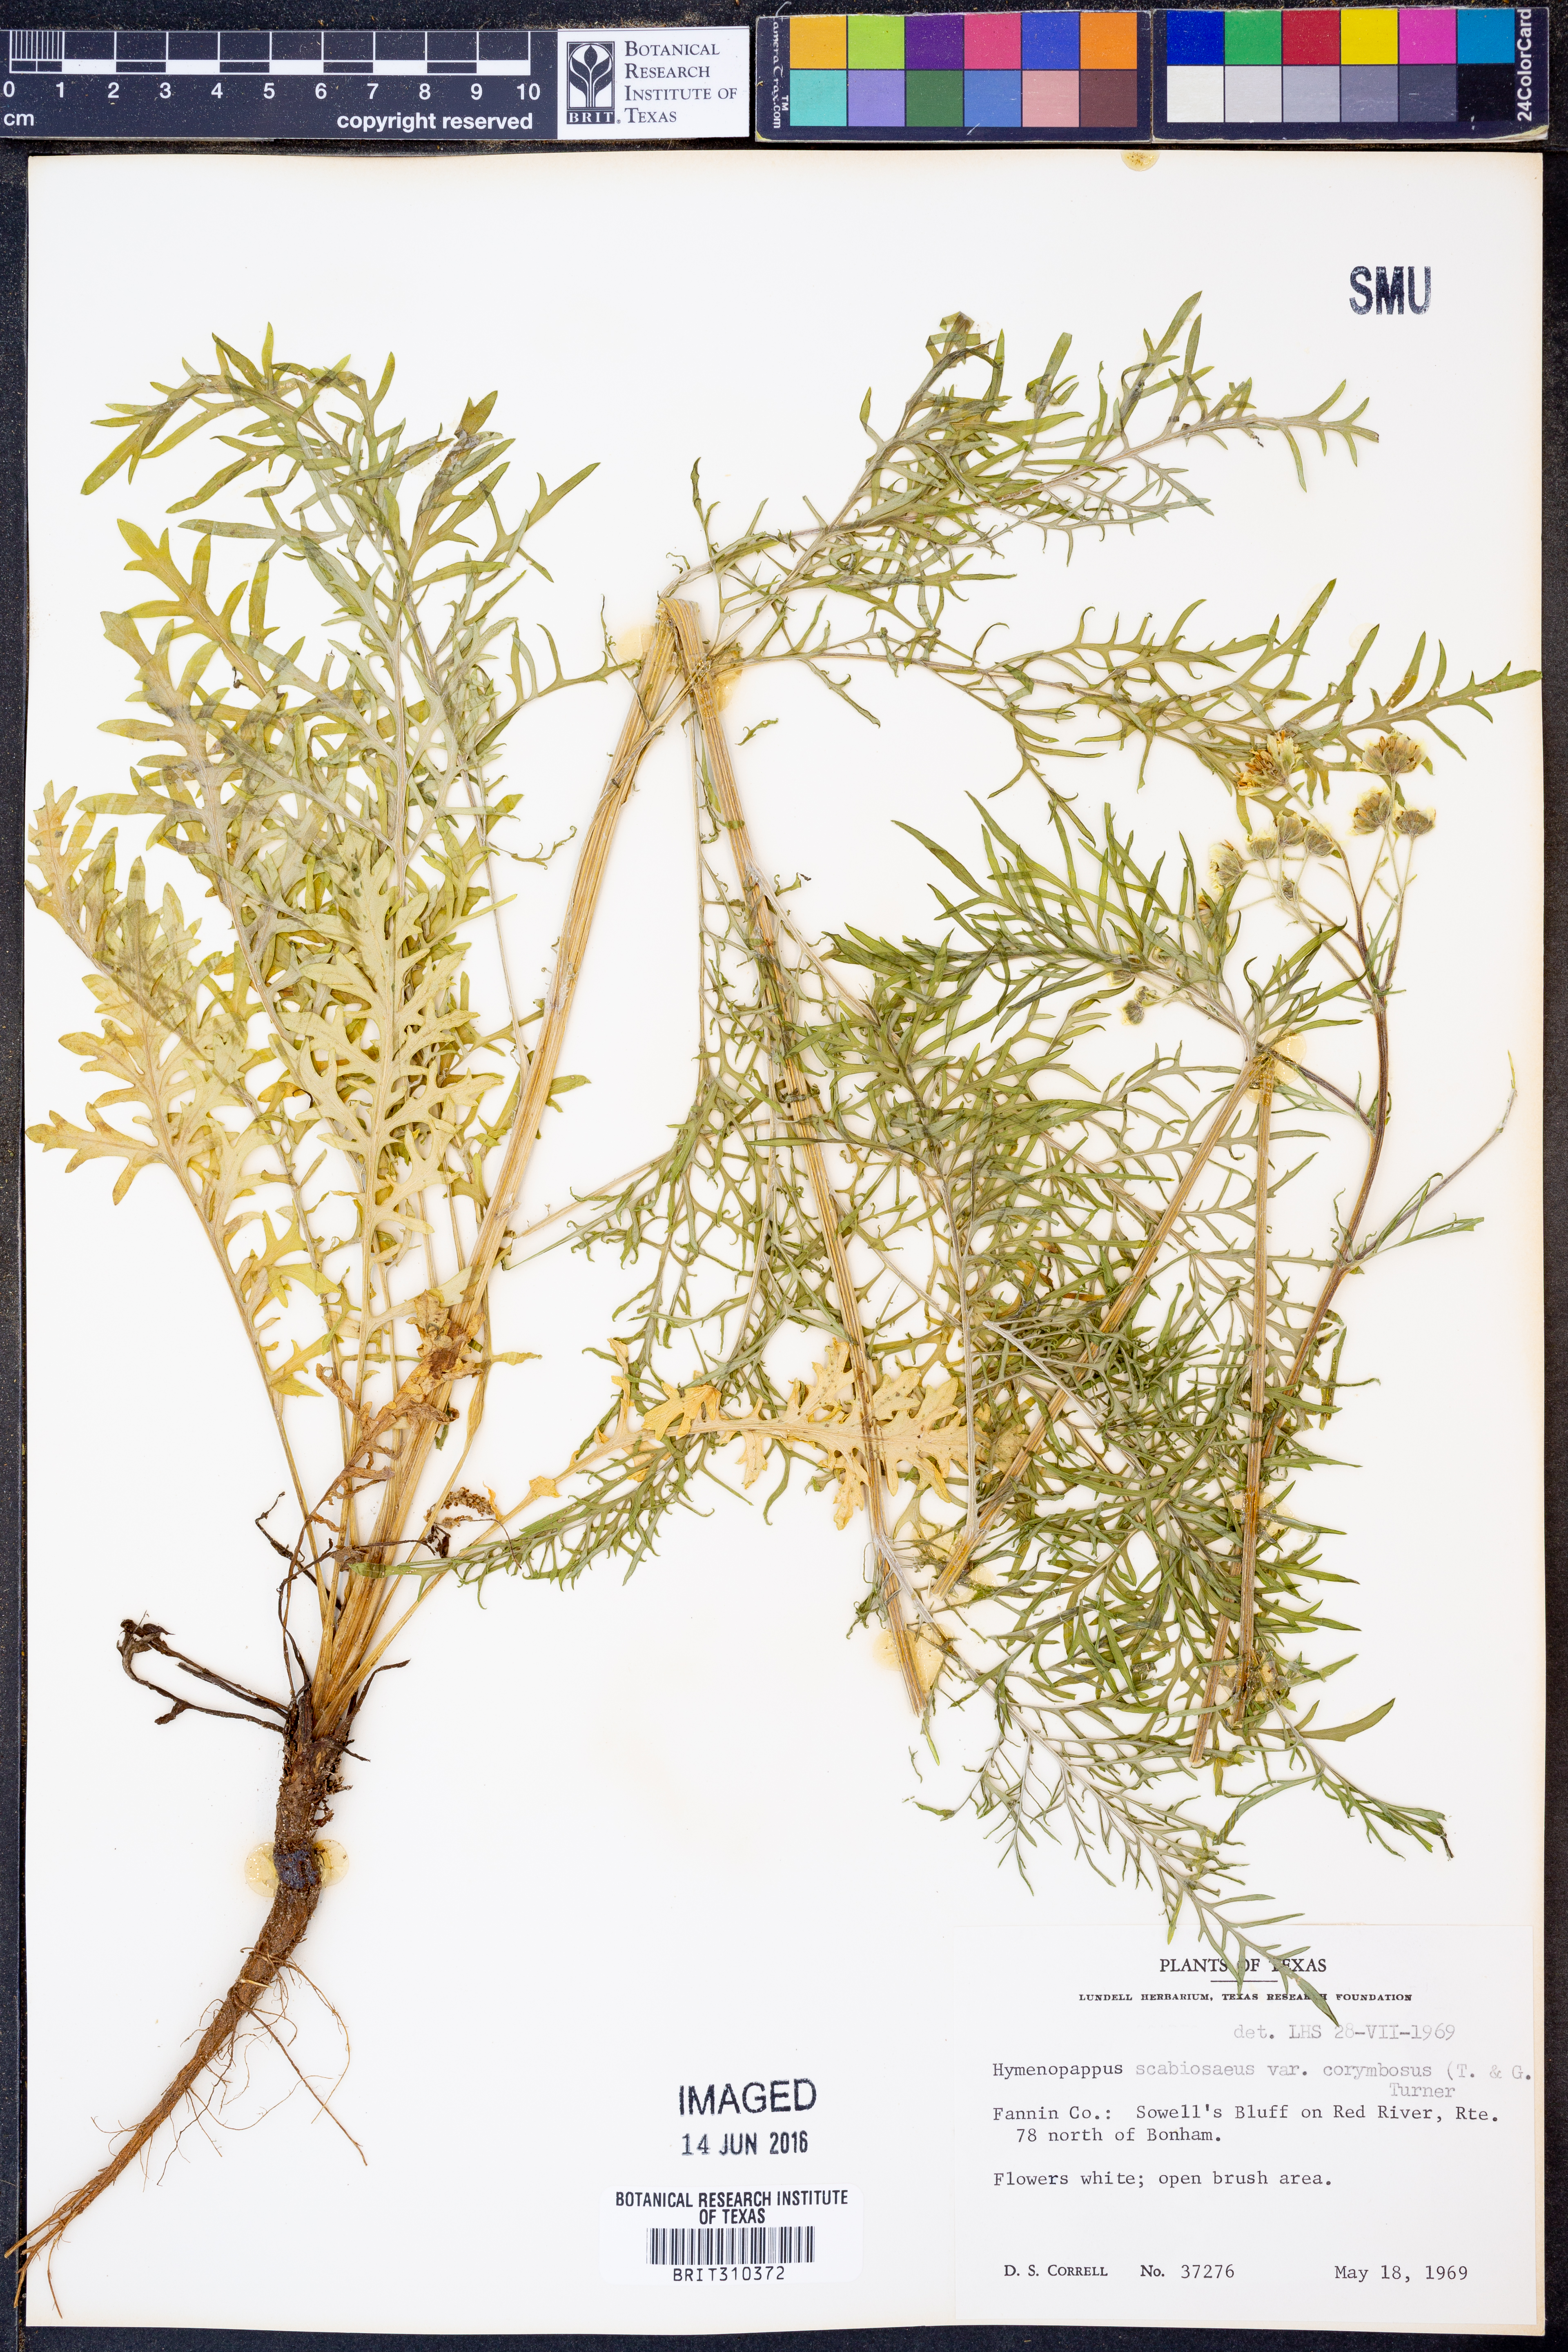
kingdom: Plantae
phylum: Tracheophyta
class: Magnoliopsida
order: Asterales
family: Asteraceae
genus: Hymenopappus
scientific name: Hymenopappus scabiosaeus
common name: Carolina woollywhite
